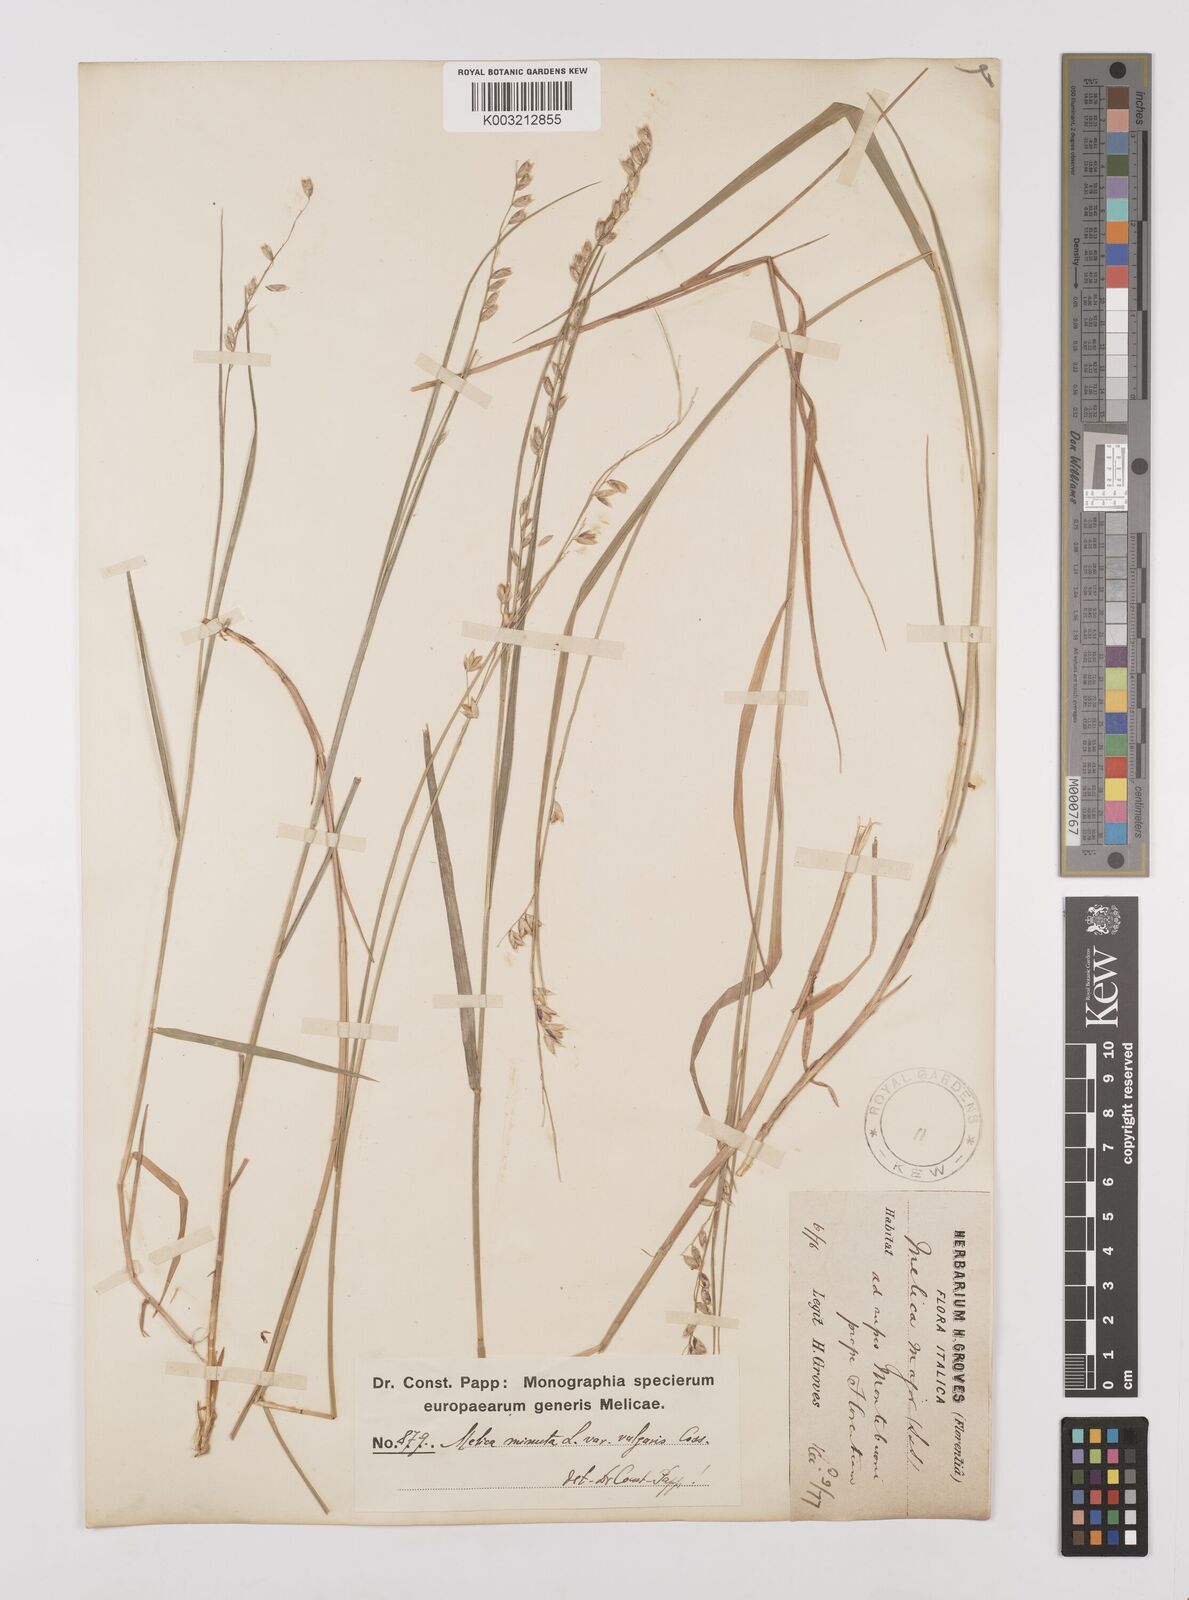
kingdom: Plantae
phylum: Tracheophyta
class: Liliopsida
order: Poales
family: Poaceae
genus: Melica
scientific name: Melica minuta
